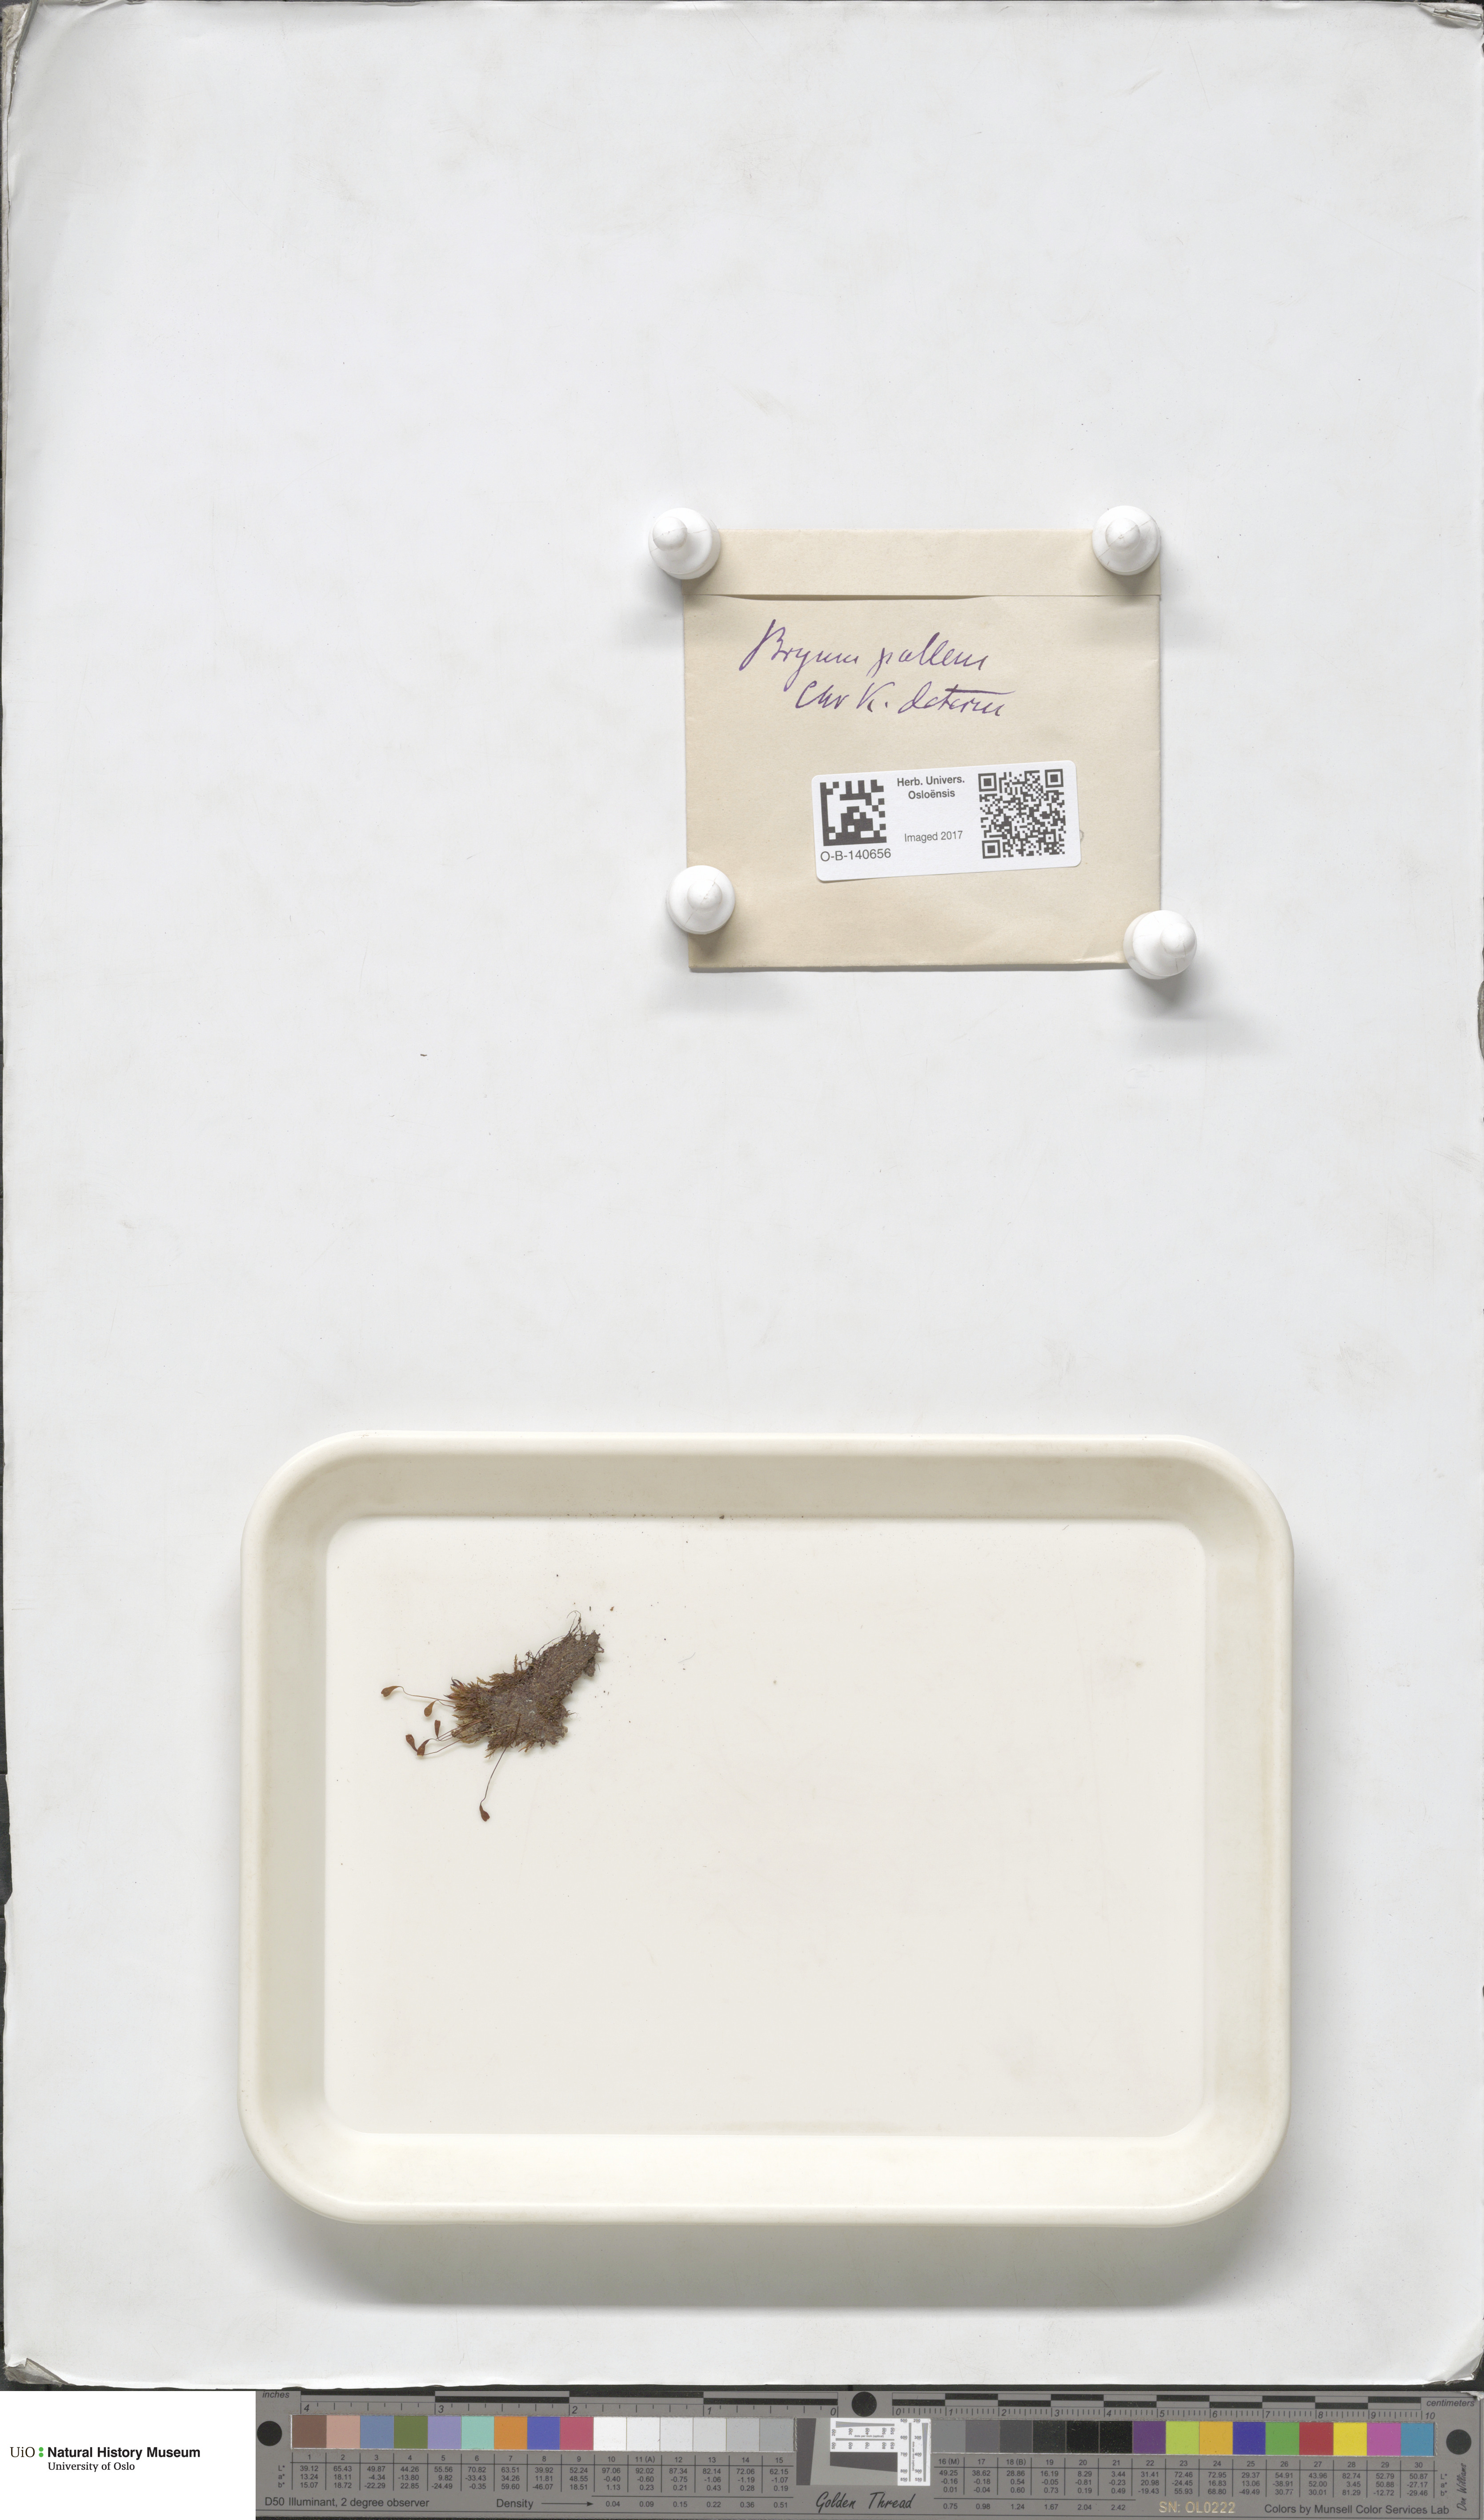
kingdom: Plantae
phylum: Bryophyta
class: Bryopsida
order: Bryales
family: Bryaceae
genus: Ptychostomum
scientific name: Ptychostomum pallens
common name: Pale thread-moss
